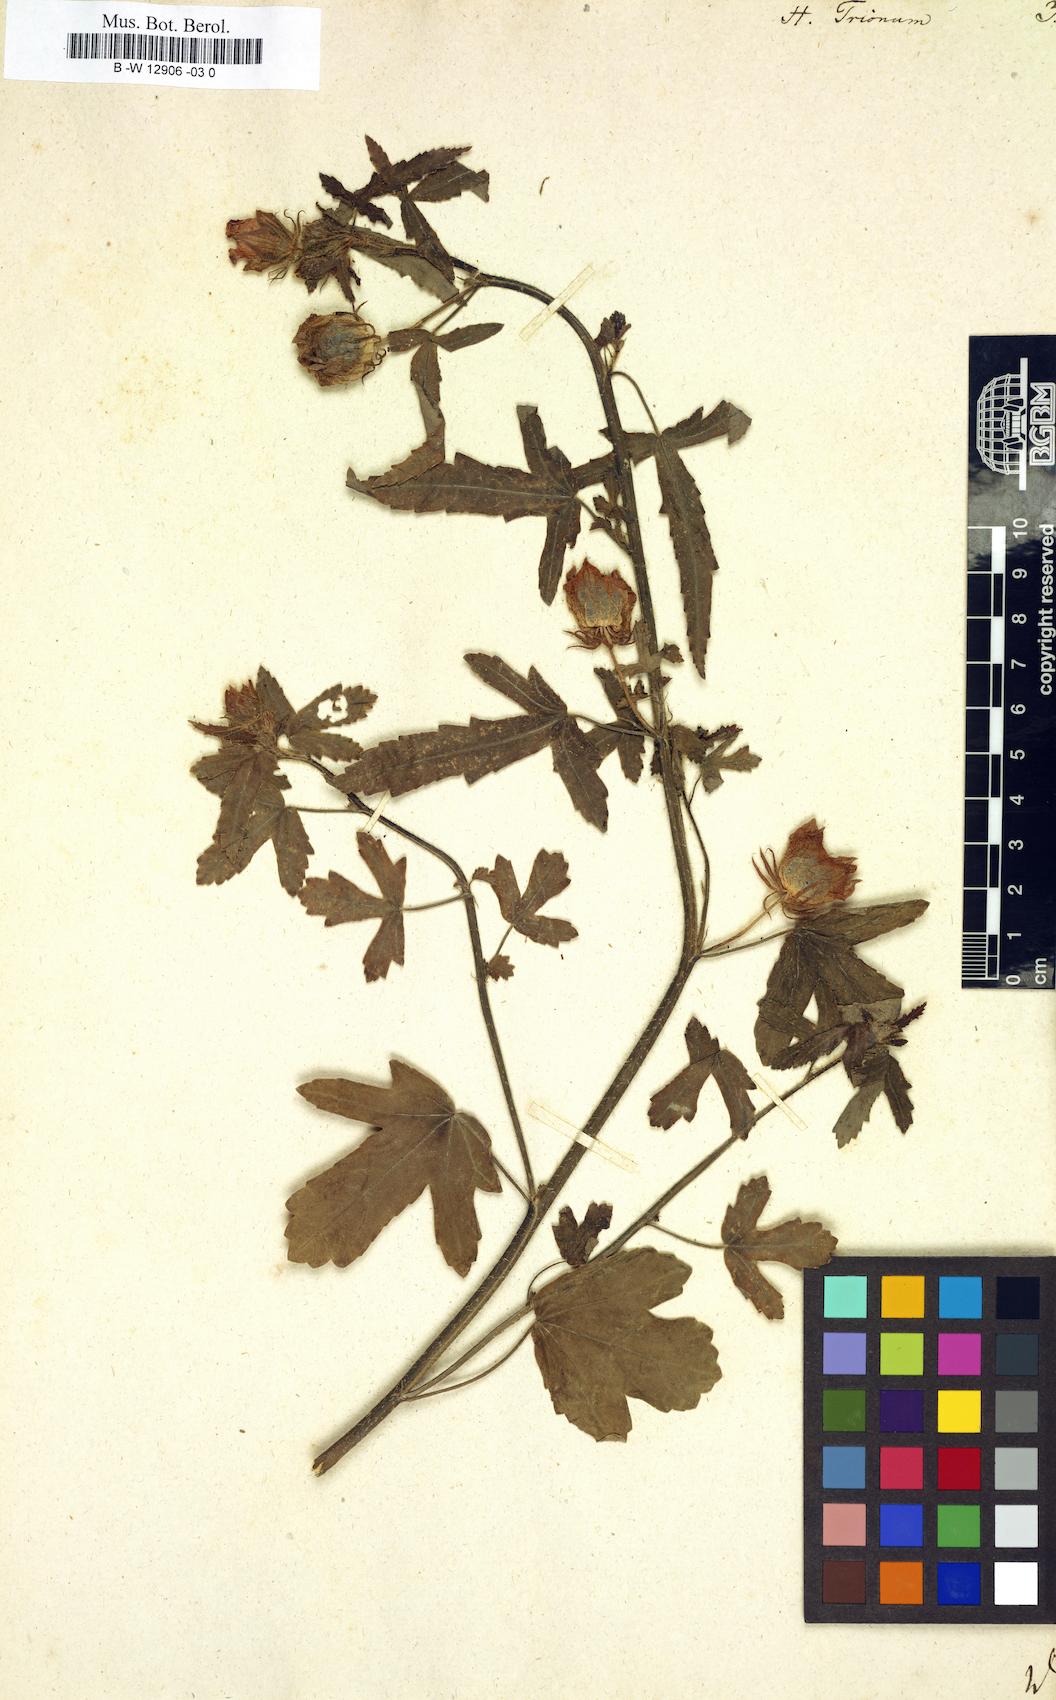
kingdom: Plantae
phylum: Tracheophyta
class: Magnoliopsida
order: Malvales
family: Malvaceae
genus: Hibiscus
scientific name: Hibiscus trionum
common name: Bladder ketmia
